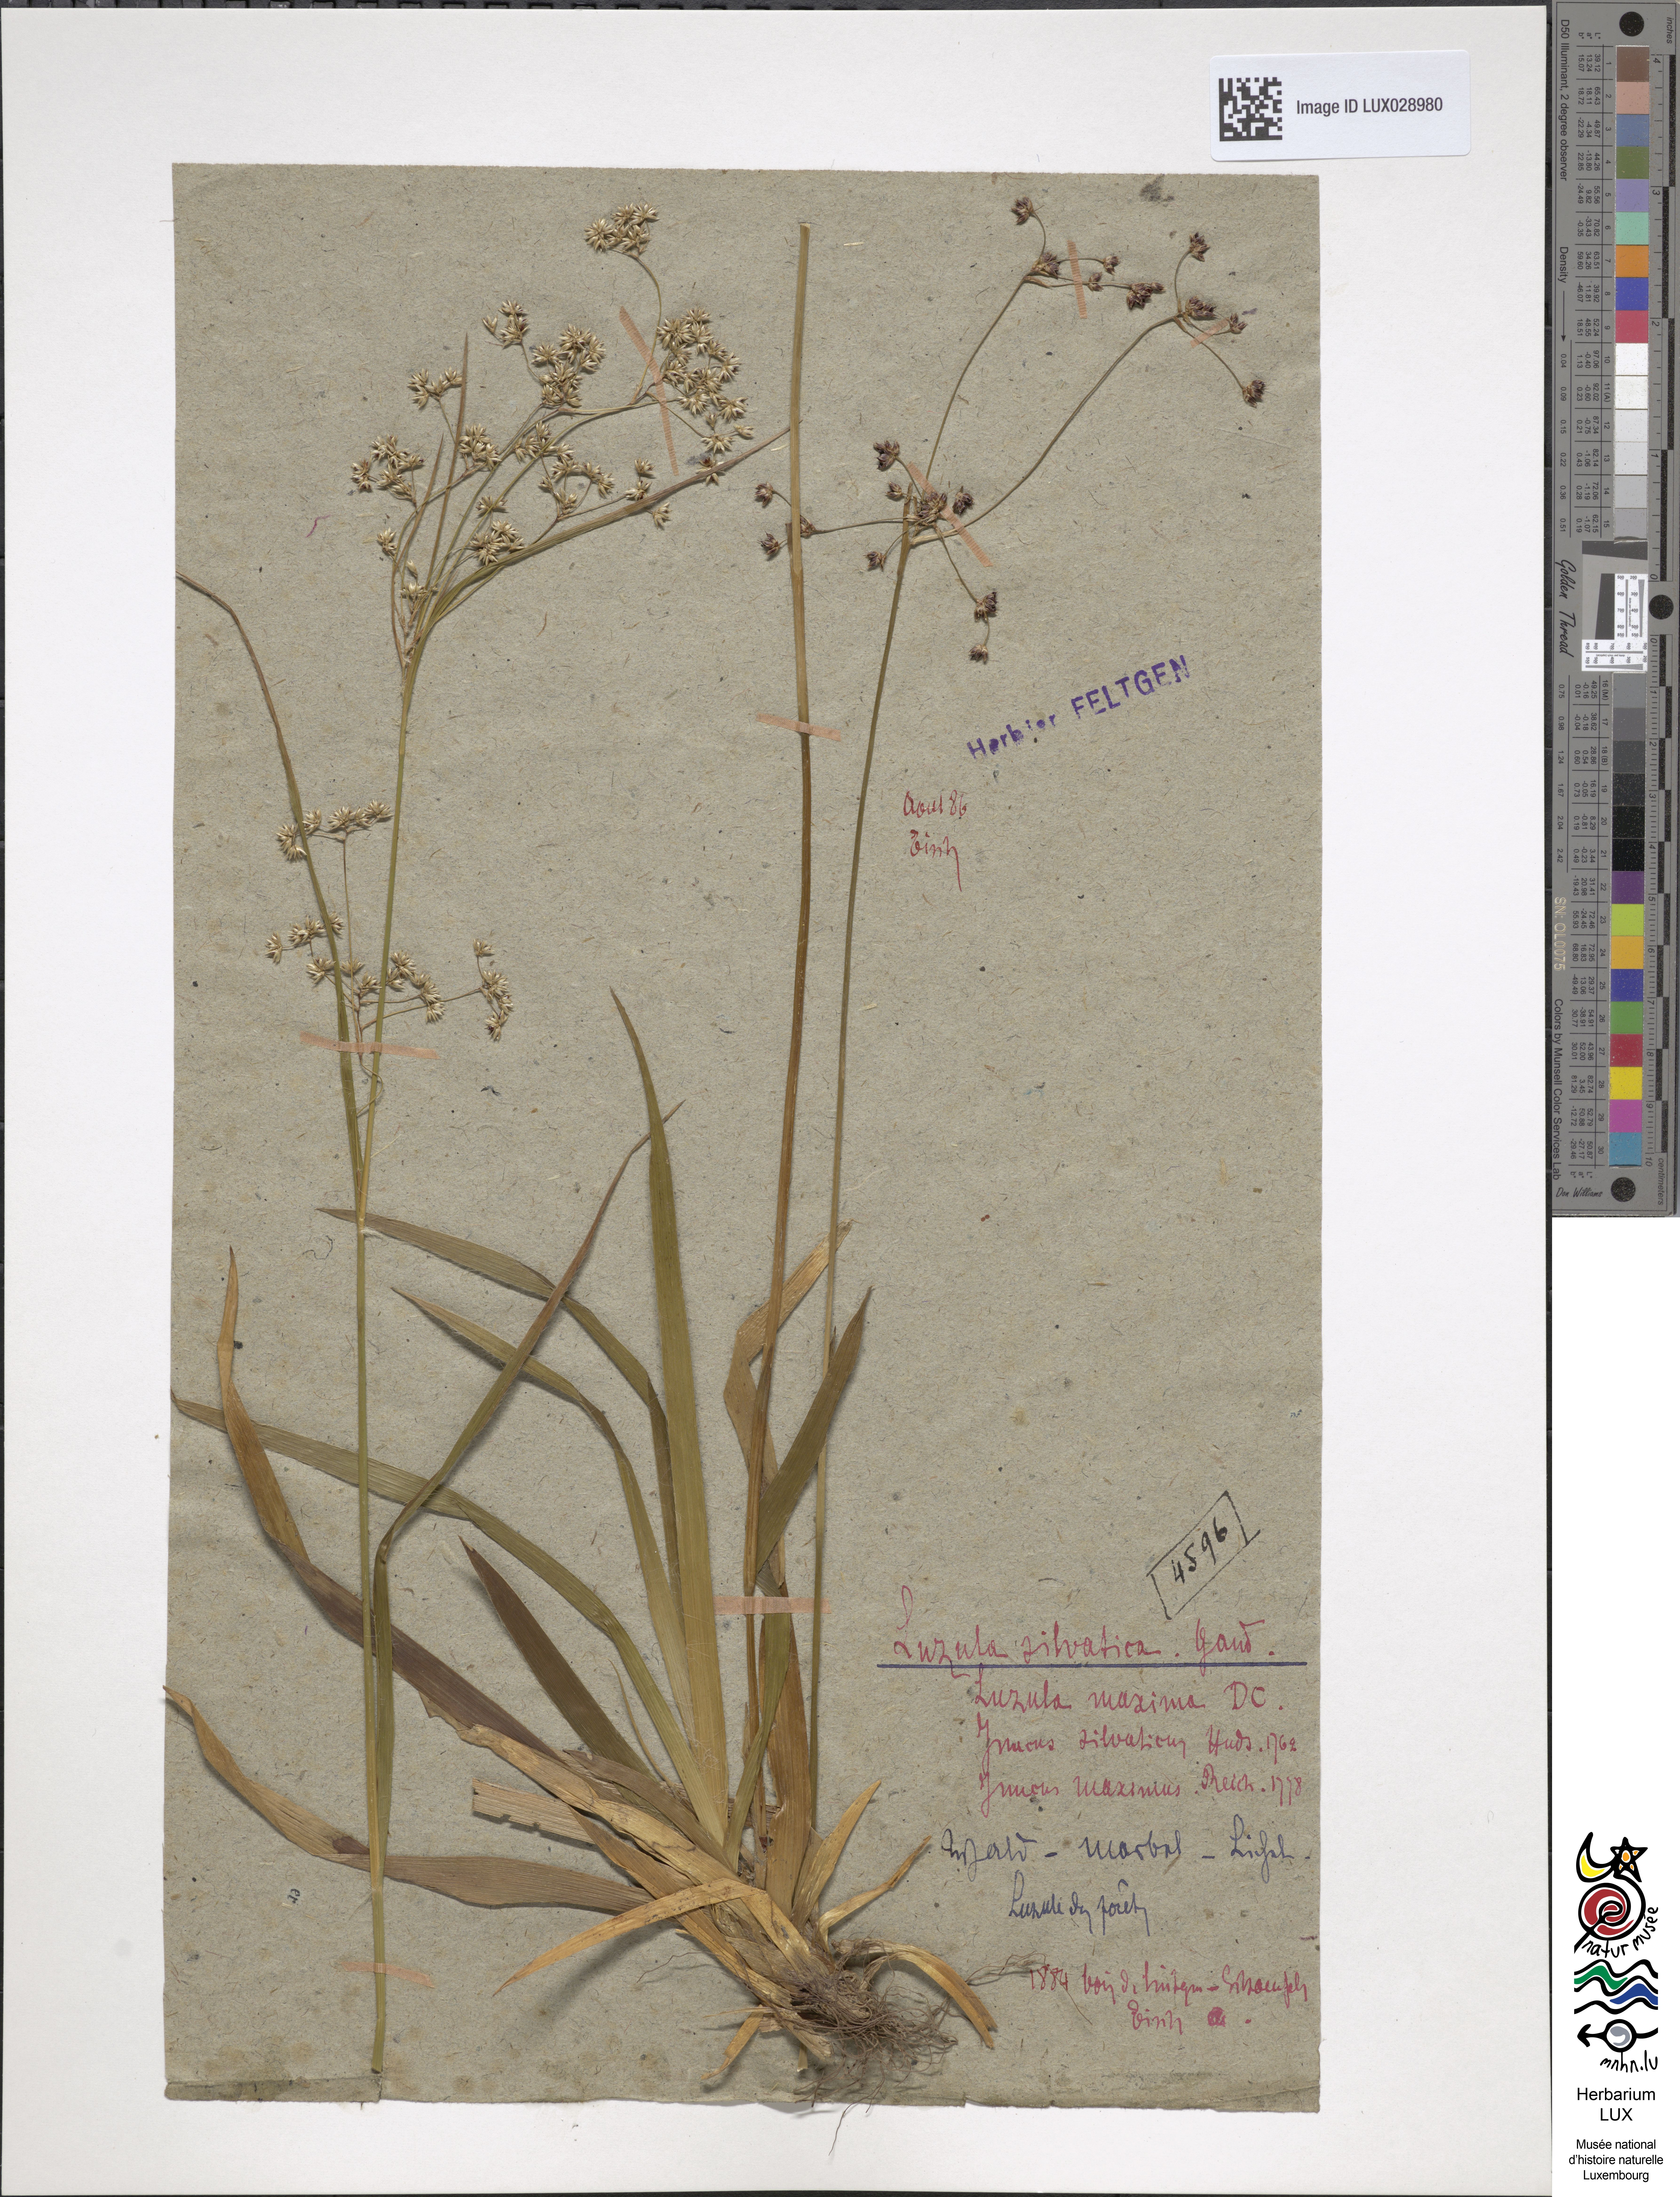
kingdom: Plantae
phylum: Tracheophyta
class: Liliopsida
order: Poales
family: Juncaceae
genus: Luzula
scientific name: Luzula sylvatica
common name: Great wood-rush
